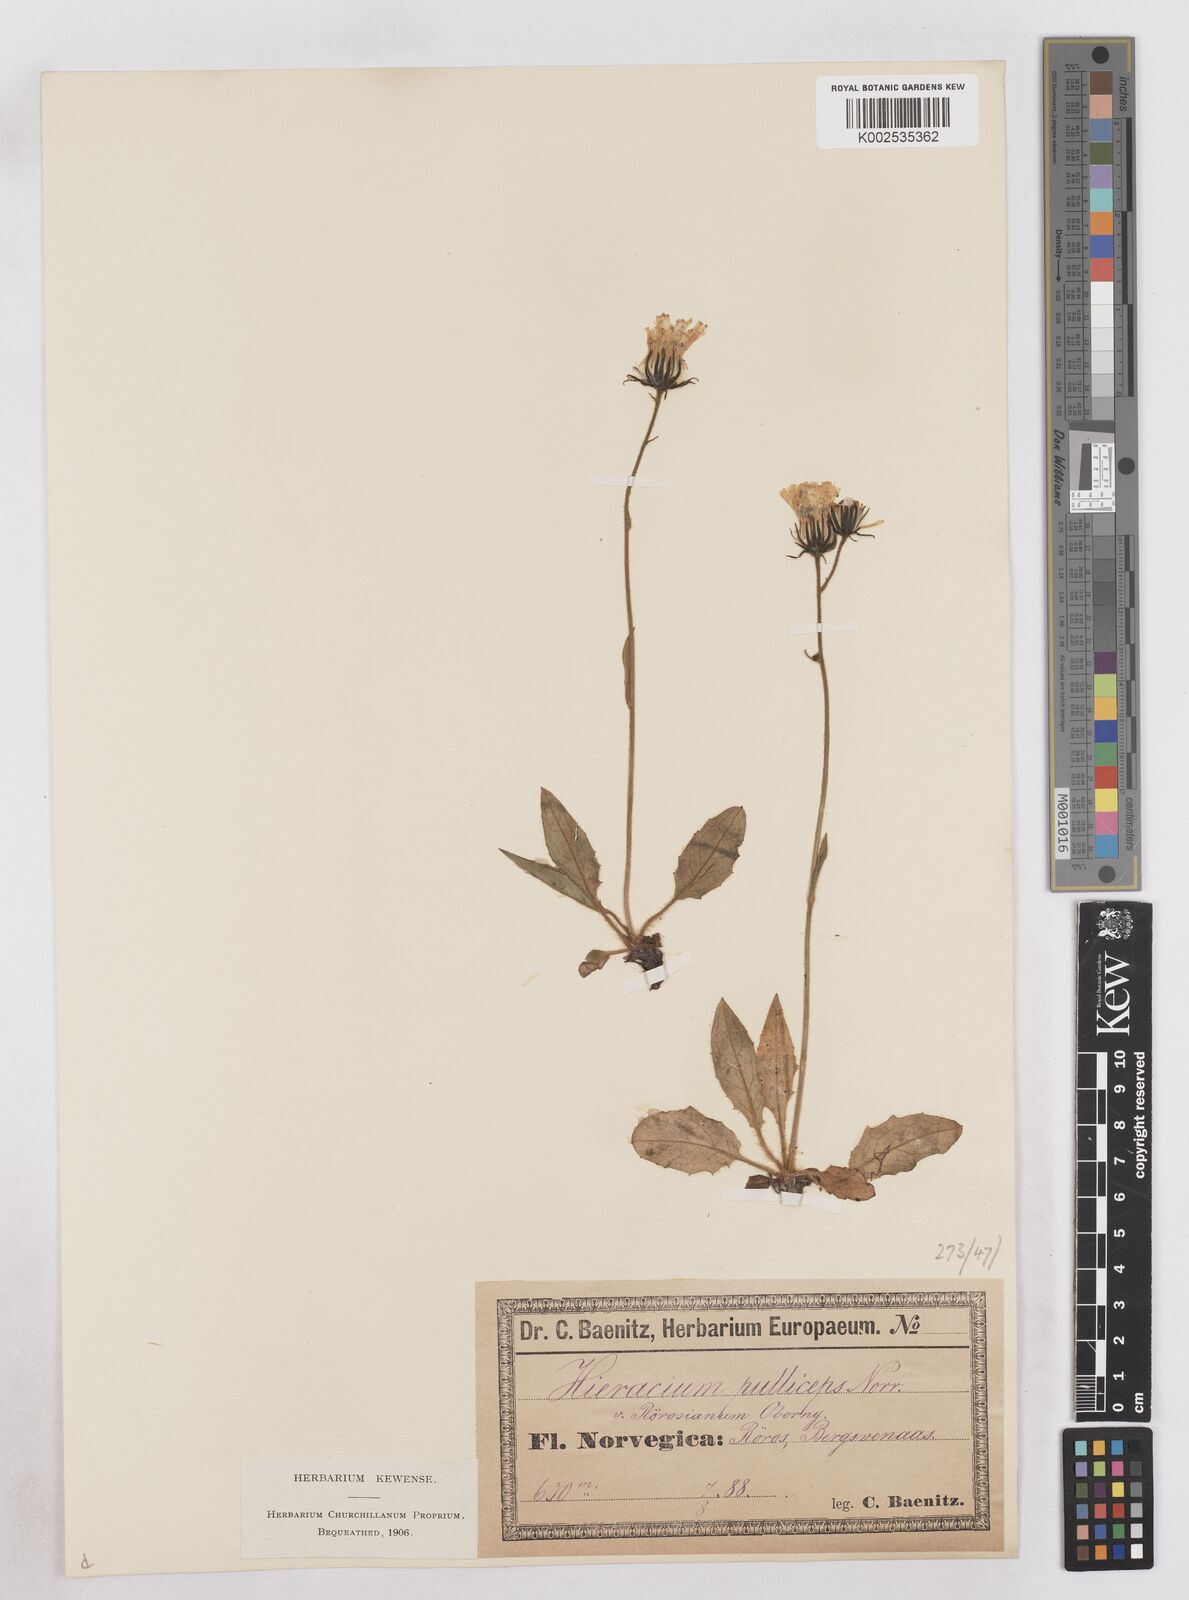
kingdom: Plantae
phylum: Tracheophyta
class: Magnoliopsida
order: Asterales
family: Asteraceae
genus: Hieracium
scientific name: Hieracium
